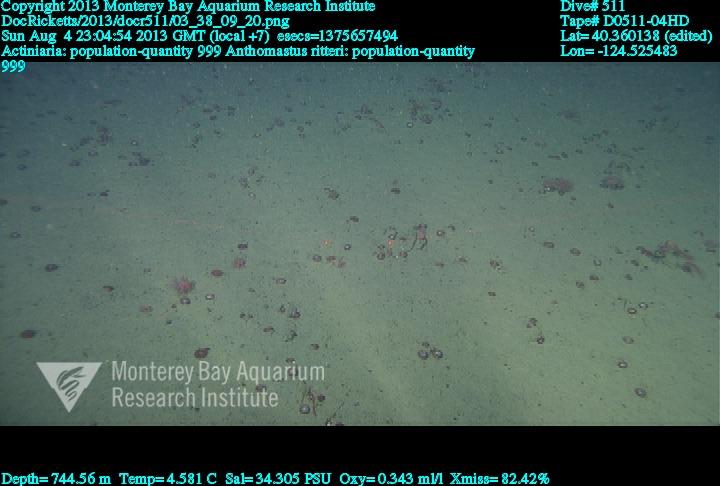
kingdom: Animalia
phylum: Cnidaria
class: Anthozoa
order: Scleralcyonacea
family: Coralliidae
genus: Heteropolypus
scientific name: Heteropolypus ritteri
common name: Ritter's soft coral
